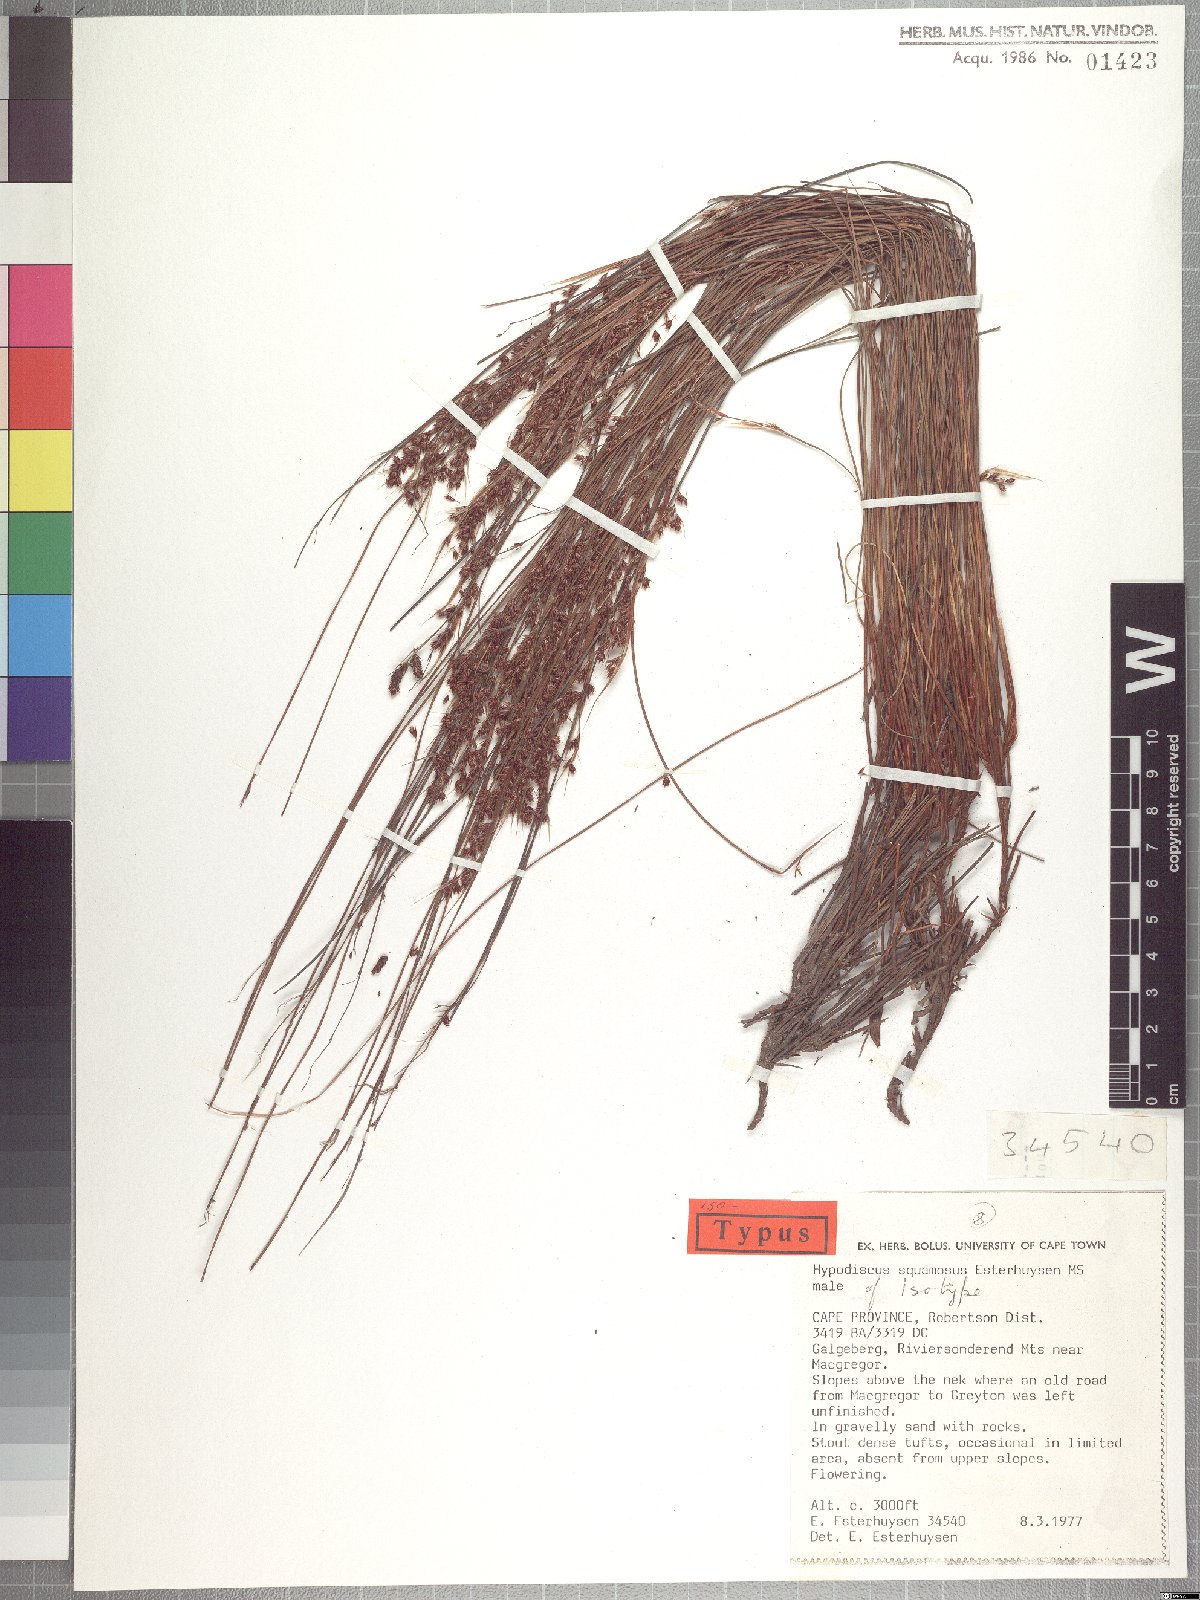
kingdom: Plantae
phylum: Tracheophyta
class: Liliopsida
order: Poales
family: Restionaceae
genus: Hypodiscus
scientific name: Hypodiscus squamosus
